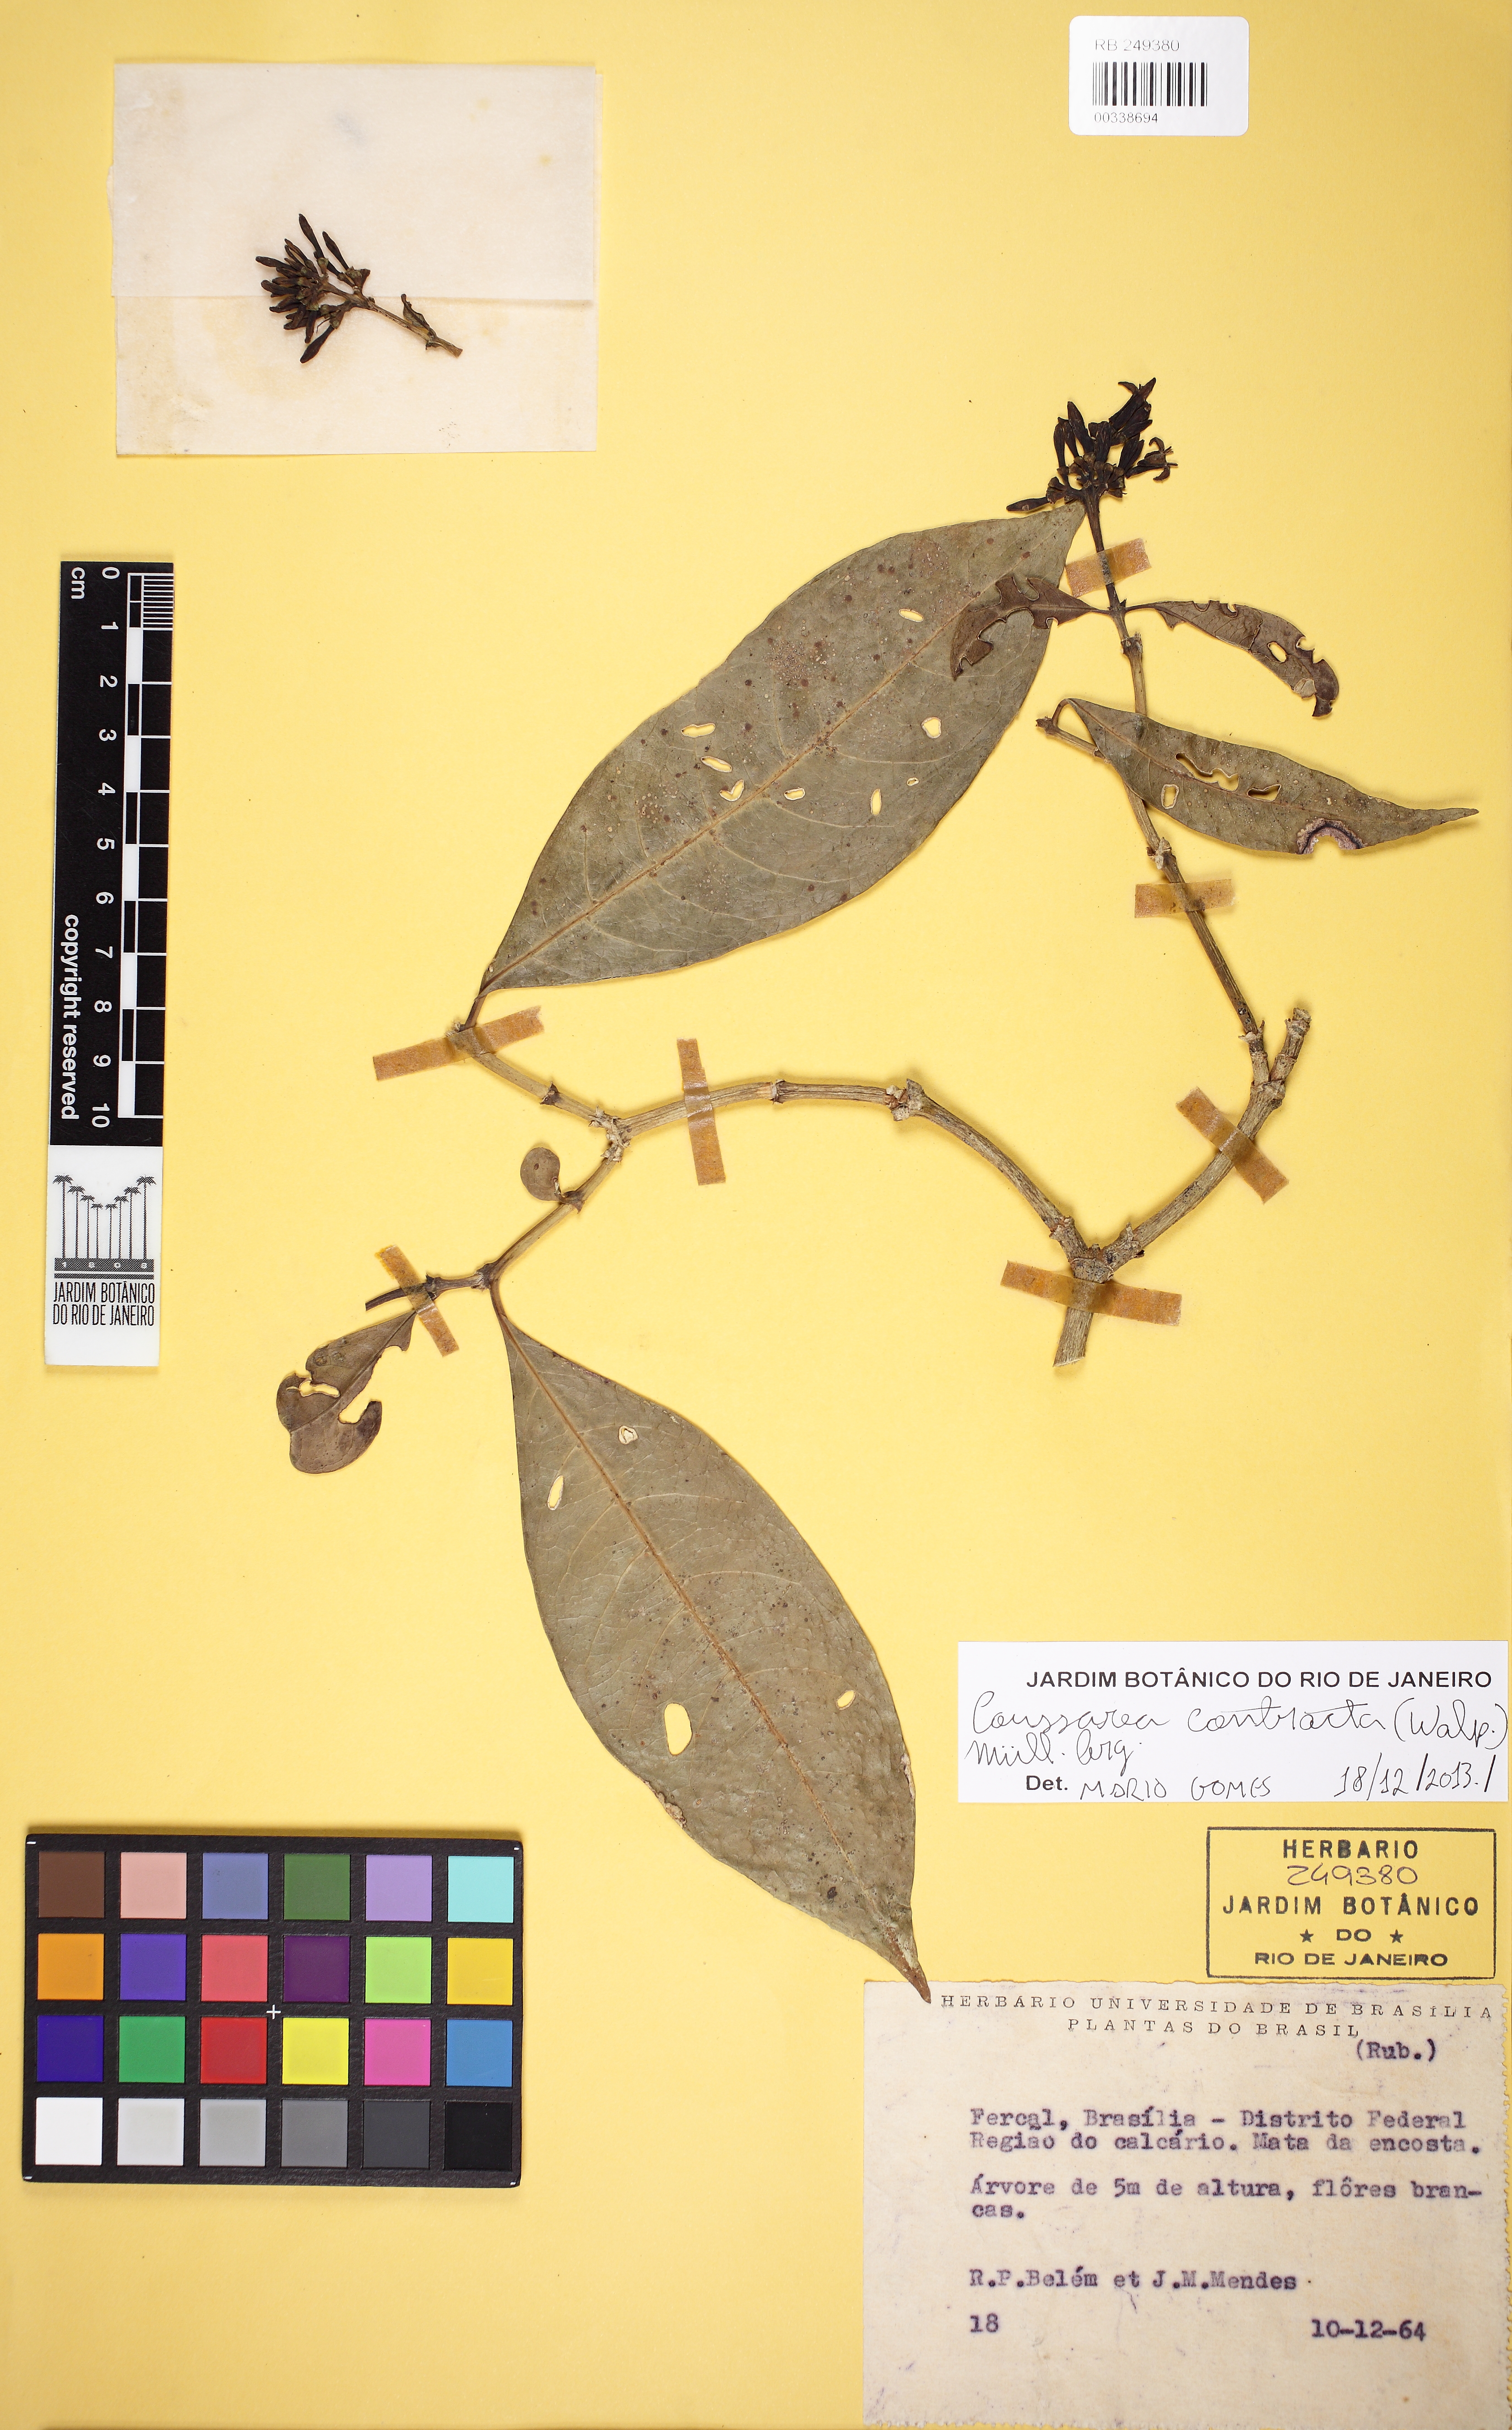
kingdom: Plantae
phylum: Tracheophyta
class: Magnoliopsida
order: Gentianales
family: Rubiaceae
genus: Coussarea
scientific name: Coussarea contracta
